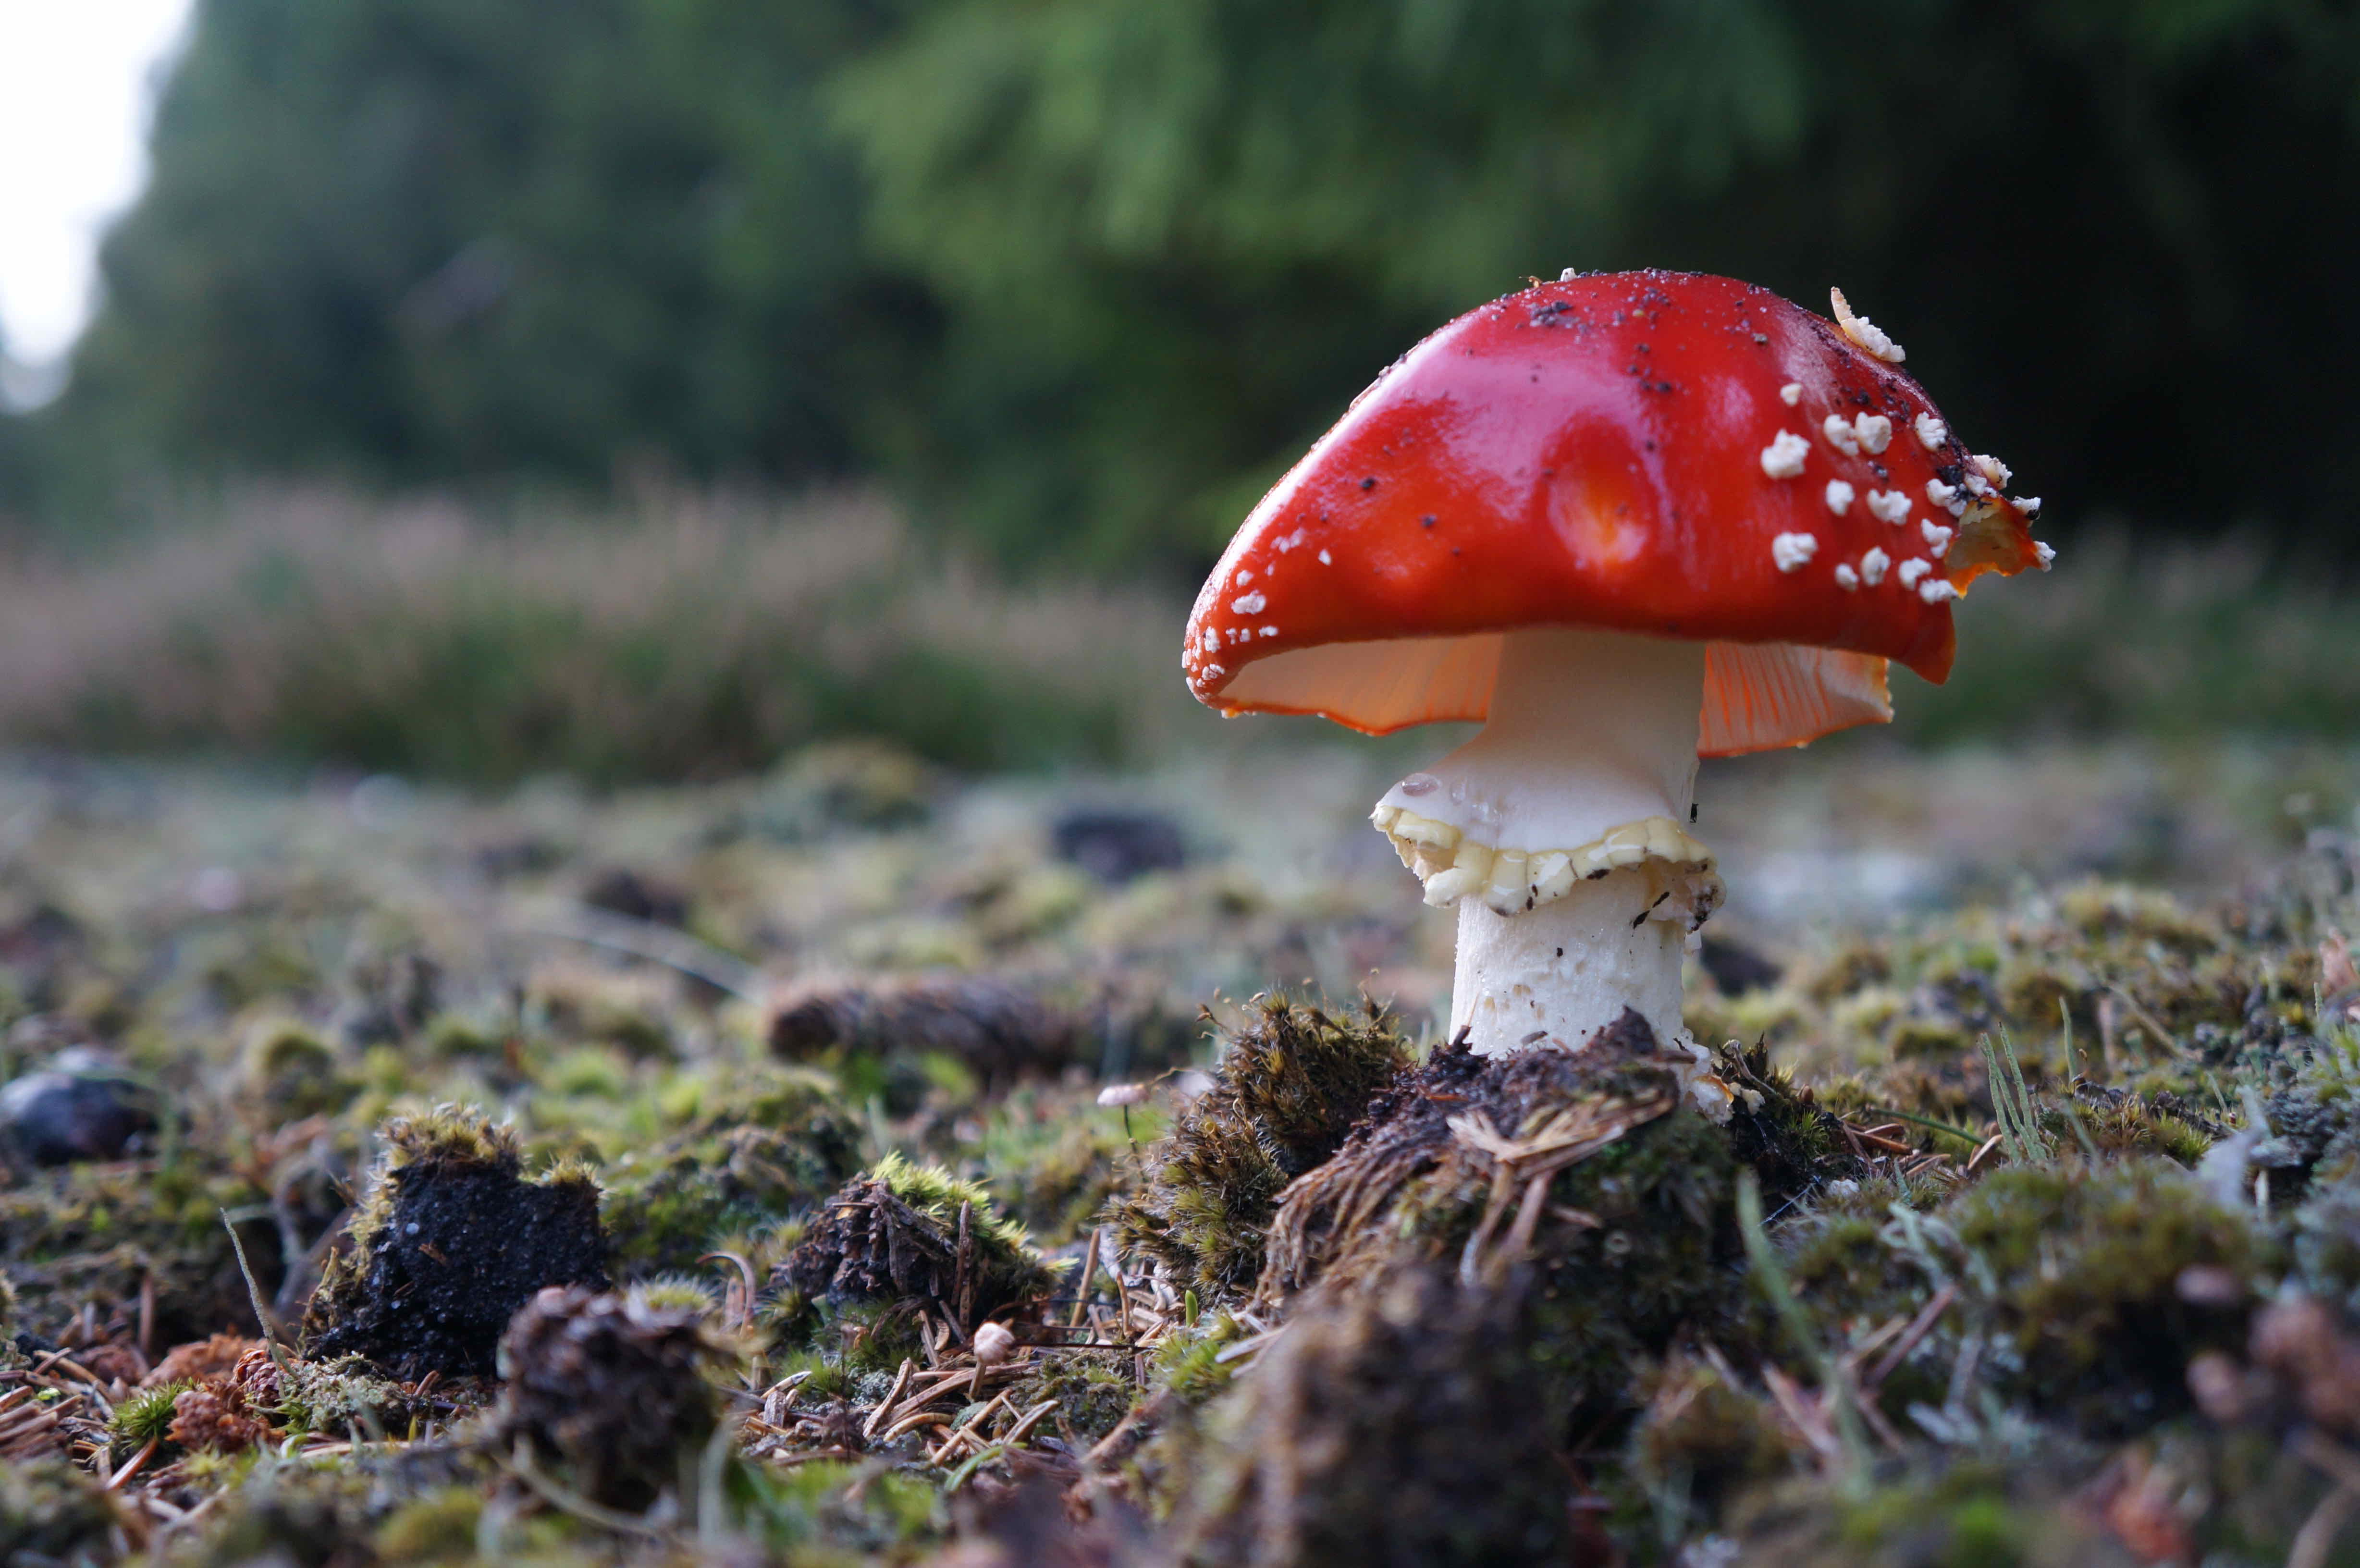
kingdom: Fungi
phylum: Basidiomycota
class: Agaricomycetes
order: Agaricales
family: Amanitaceae
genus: Amanita
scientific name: Amanita muscaria
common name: rød fluesvamp
